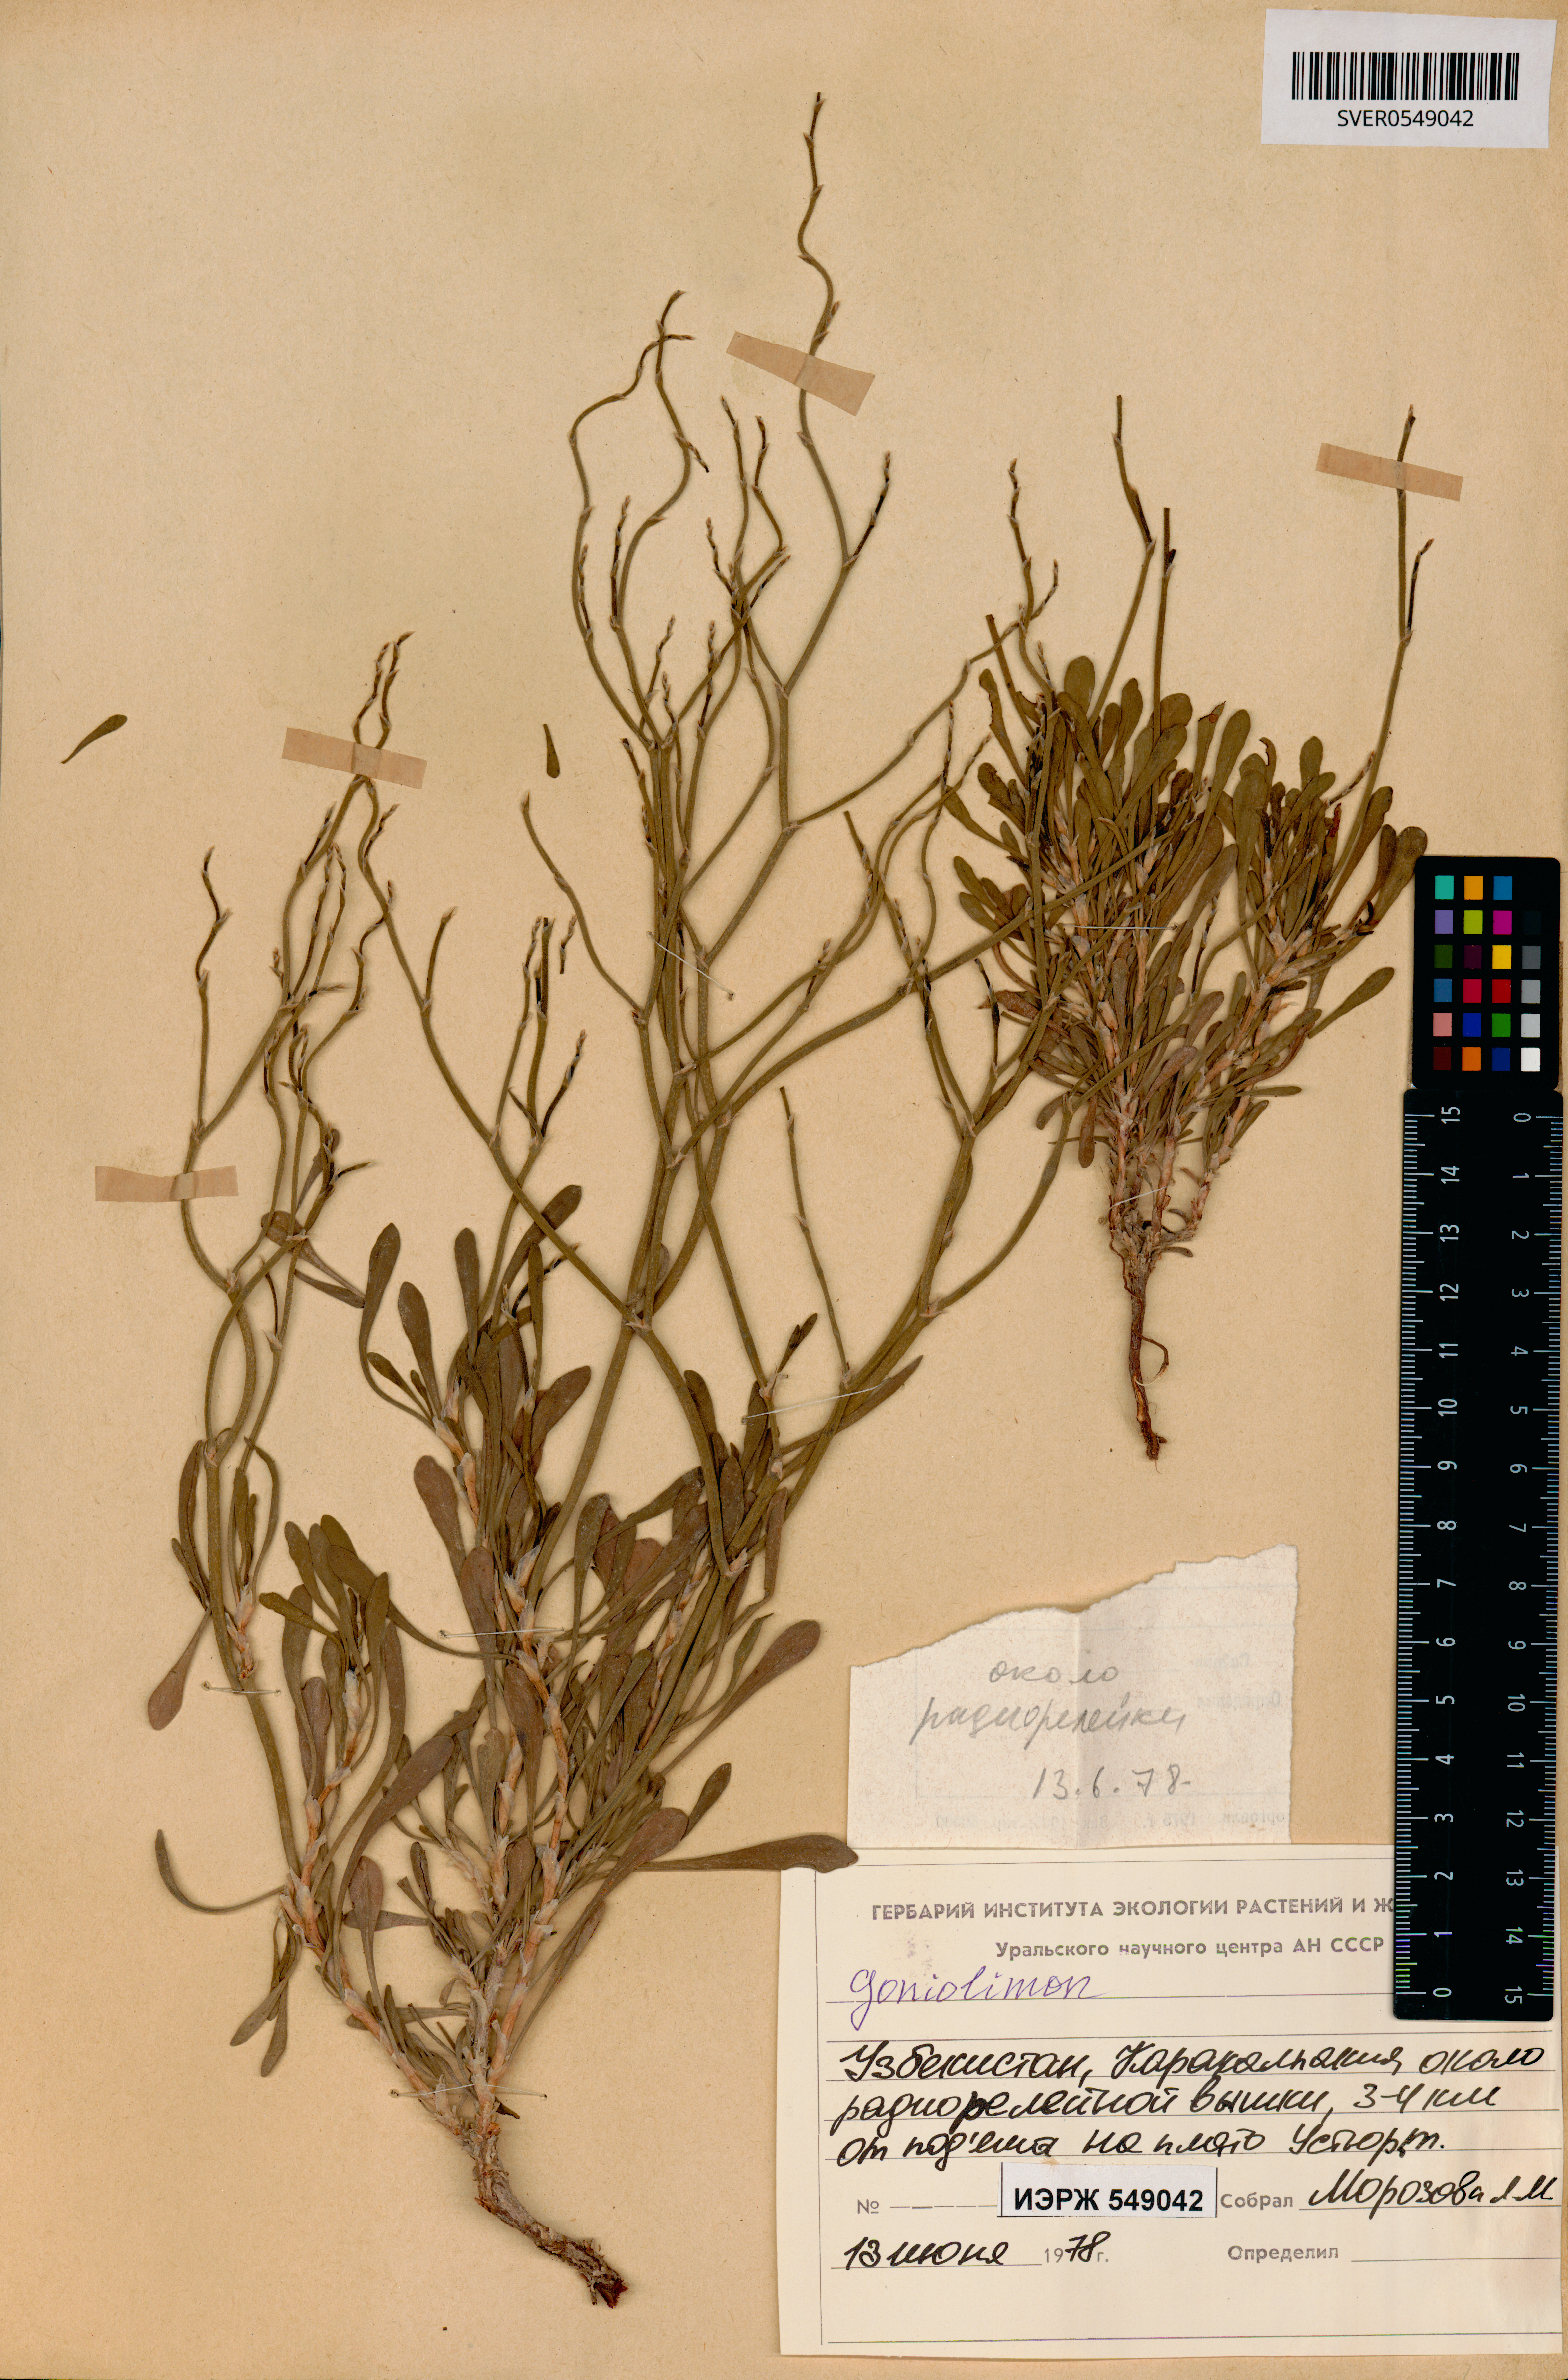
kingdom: Plantae
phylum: Tracheophyta
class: Magnoliopsida
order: Caryophyllales
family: Plumbaginaceae
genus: Goniolimon
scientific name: Goniolimon
